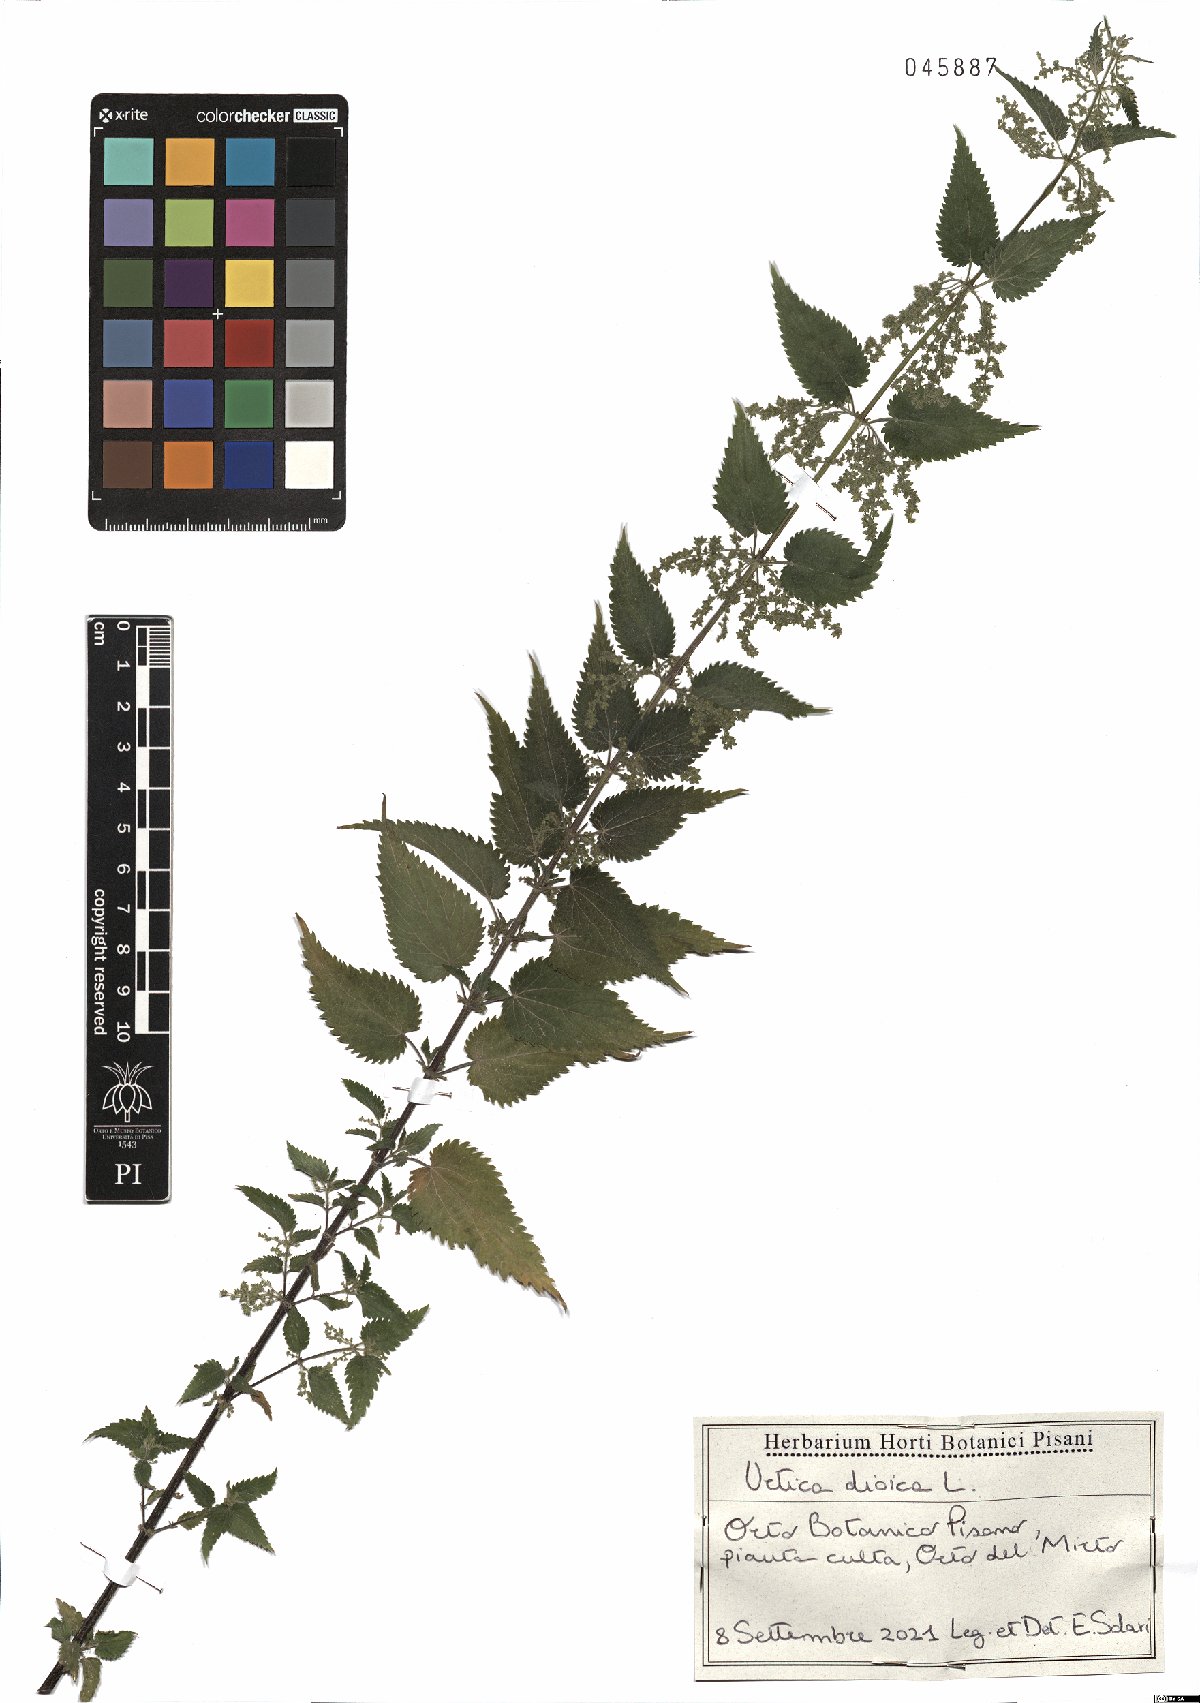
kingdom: Plantae
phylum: Tracheophyta
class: Magnoliopsida
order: Rosales
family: Urticaceae
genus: Urtica
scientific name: Urtica dioica
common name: Common nettle
